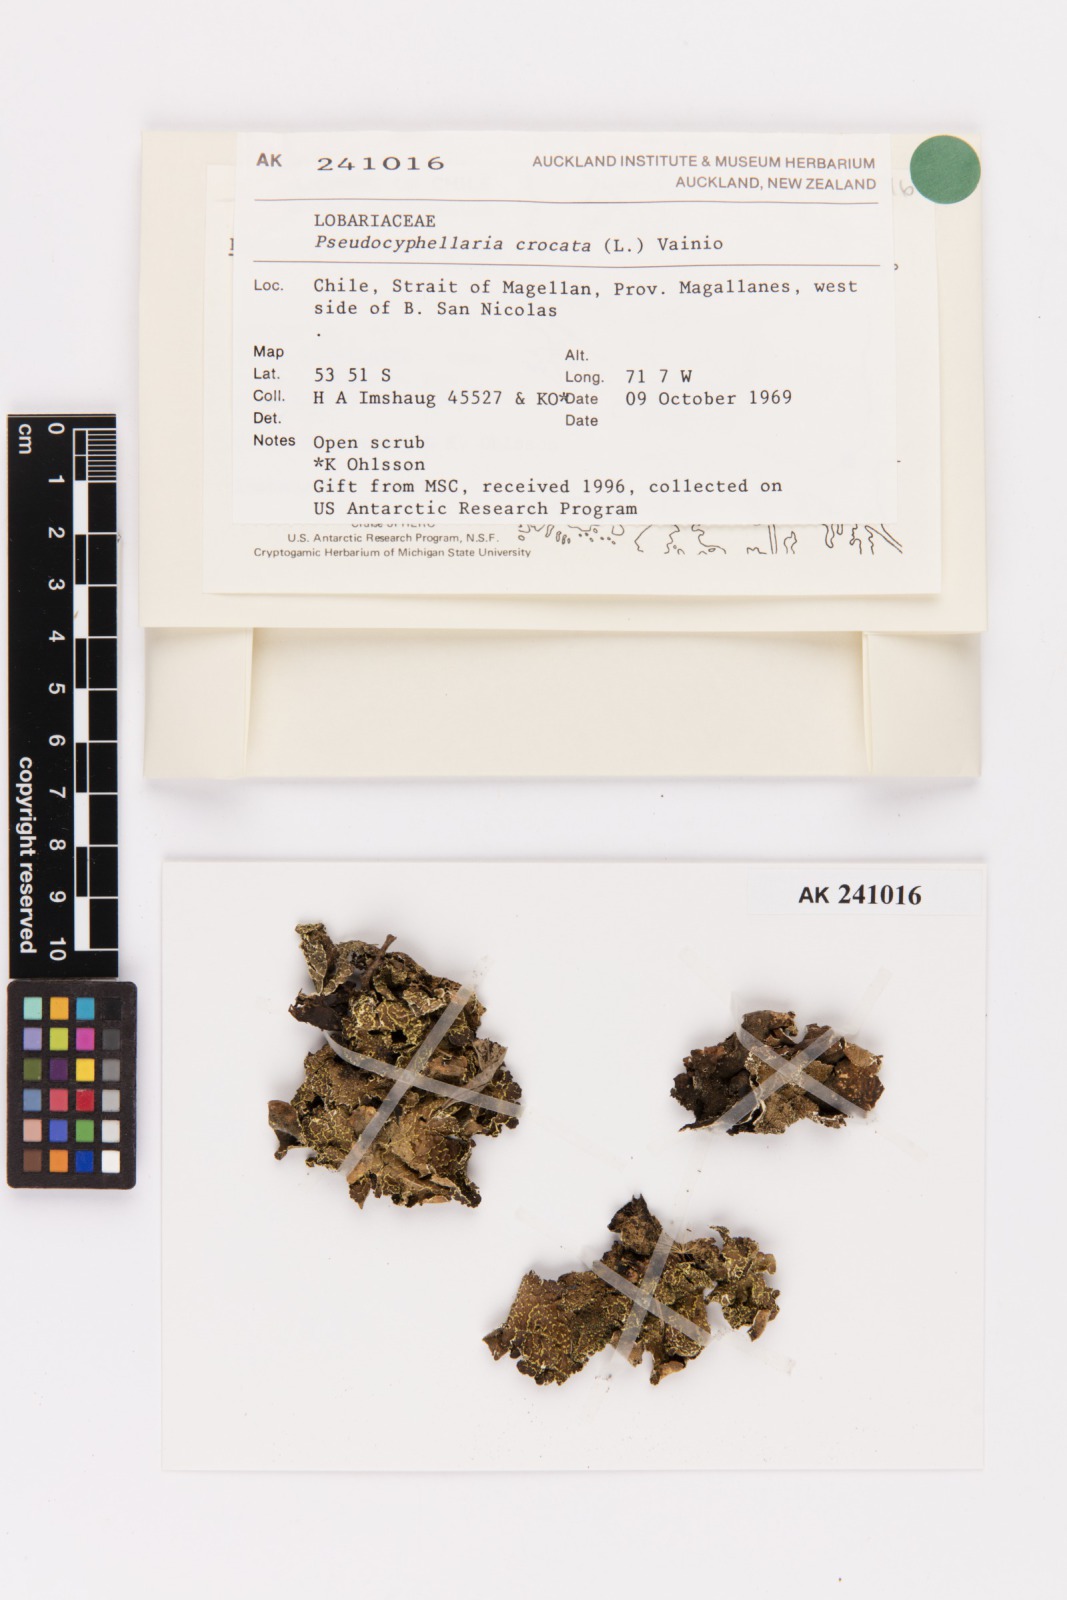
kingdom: Fungi
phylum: Ascomycota
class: Lecanoromycetes
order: Peltigerales
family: Lobariaceae
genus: Pseudocyphellaria
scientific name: Pseudocyphellaria crocata
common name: Golden specklebelly
